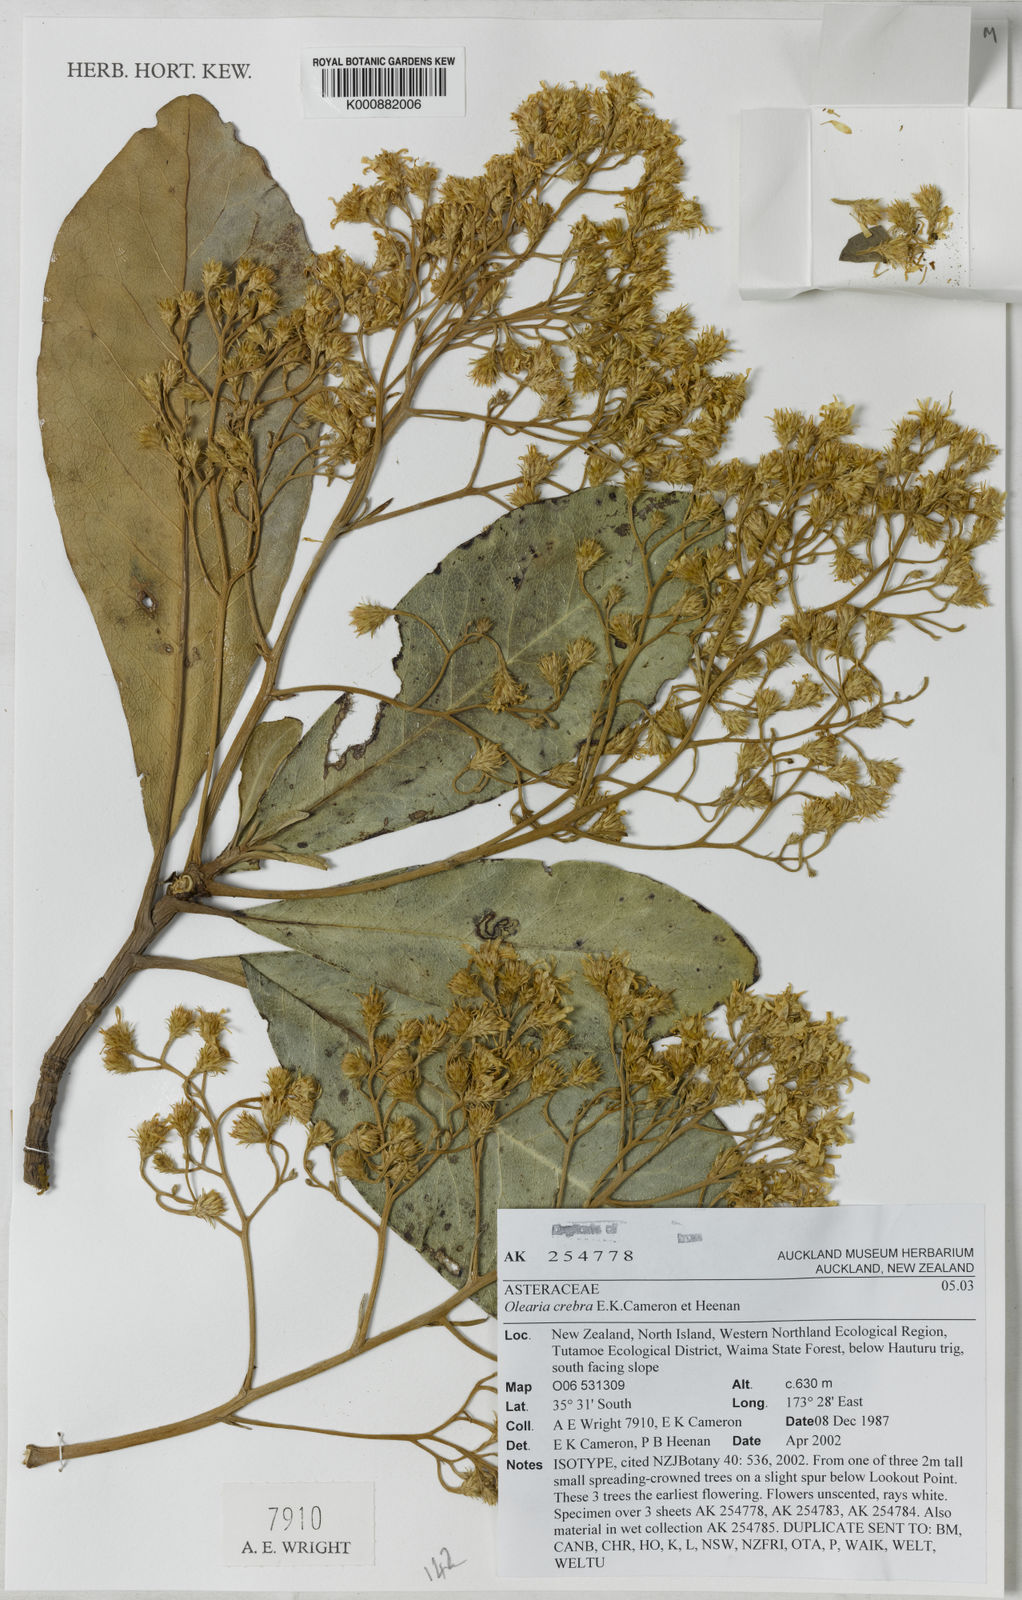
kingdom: Plantae
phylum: Tracheophyta
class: Magnoliopsida
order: Asterales
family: Asteraceae
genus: Olearia
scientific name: Olearia crebra
